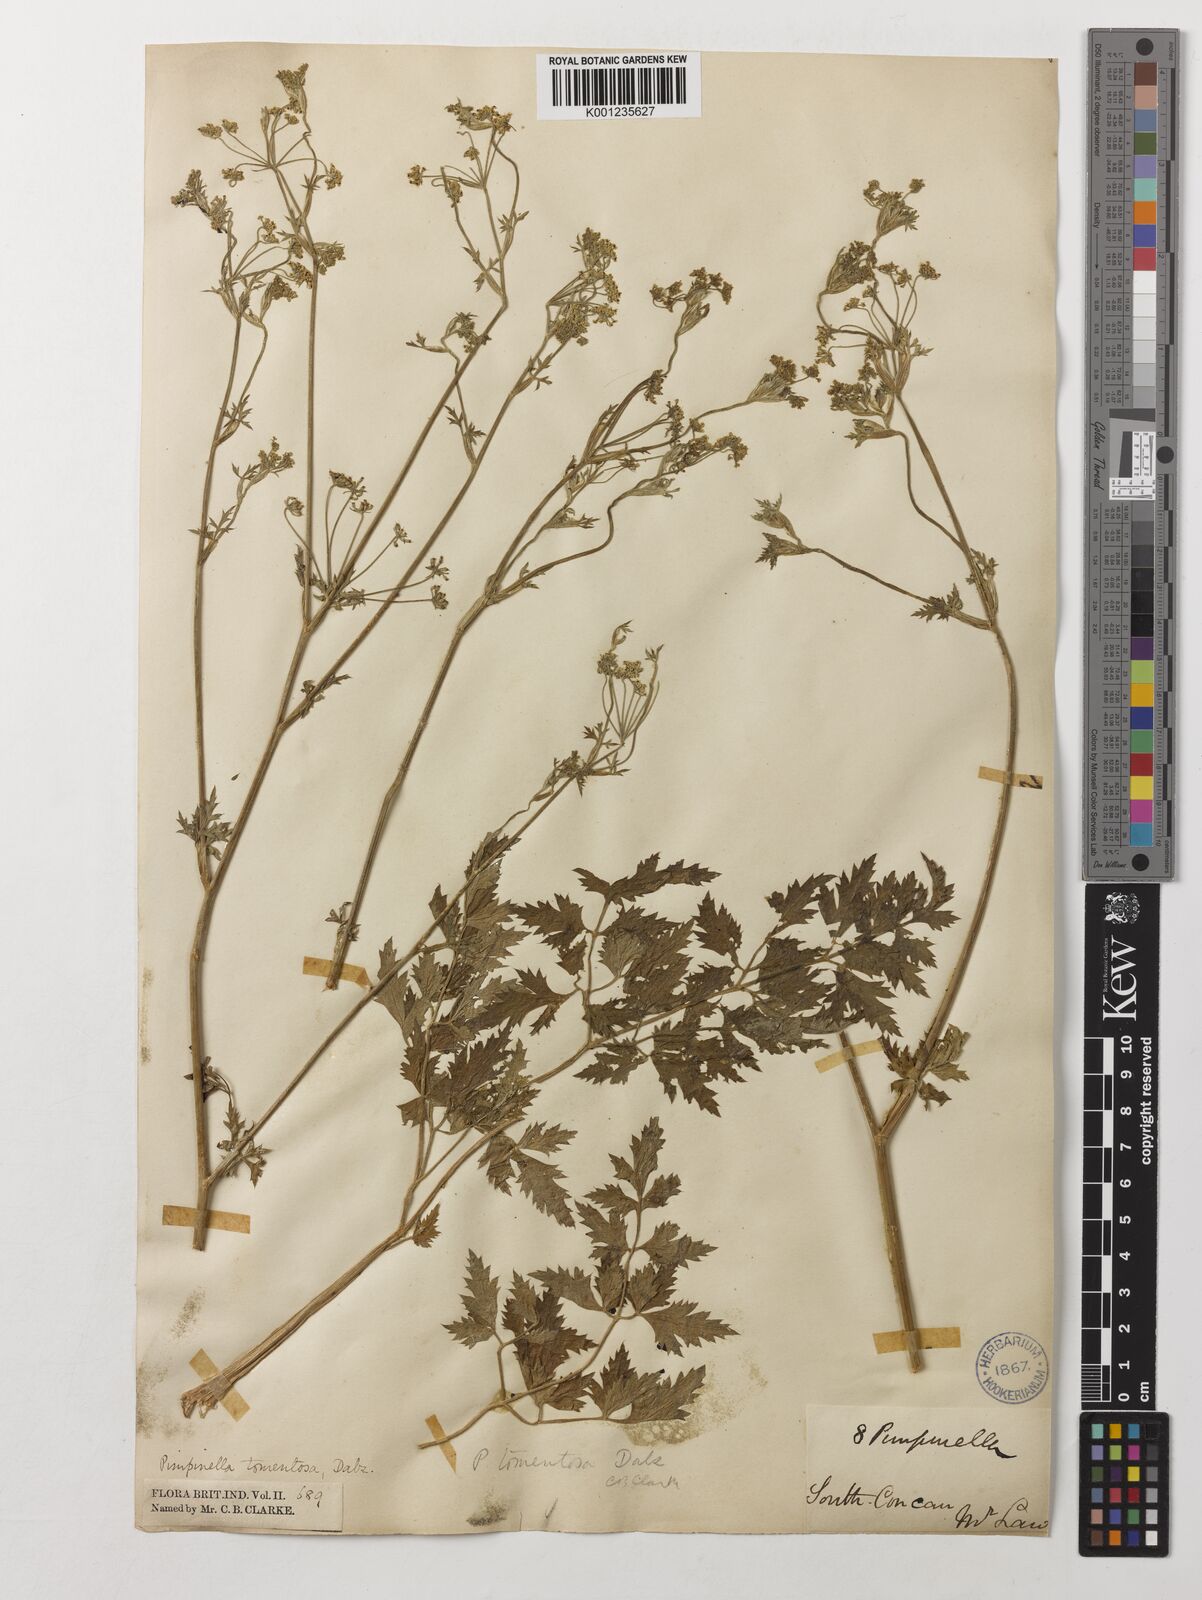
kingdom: Plantae
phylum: Tracheophyta
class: Magnoliopsida
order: Apiales
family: Apiaceae
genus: Pimpinella
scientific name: Pimpinella tomentosa
